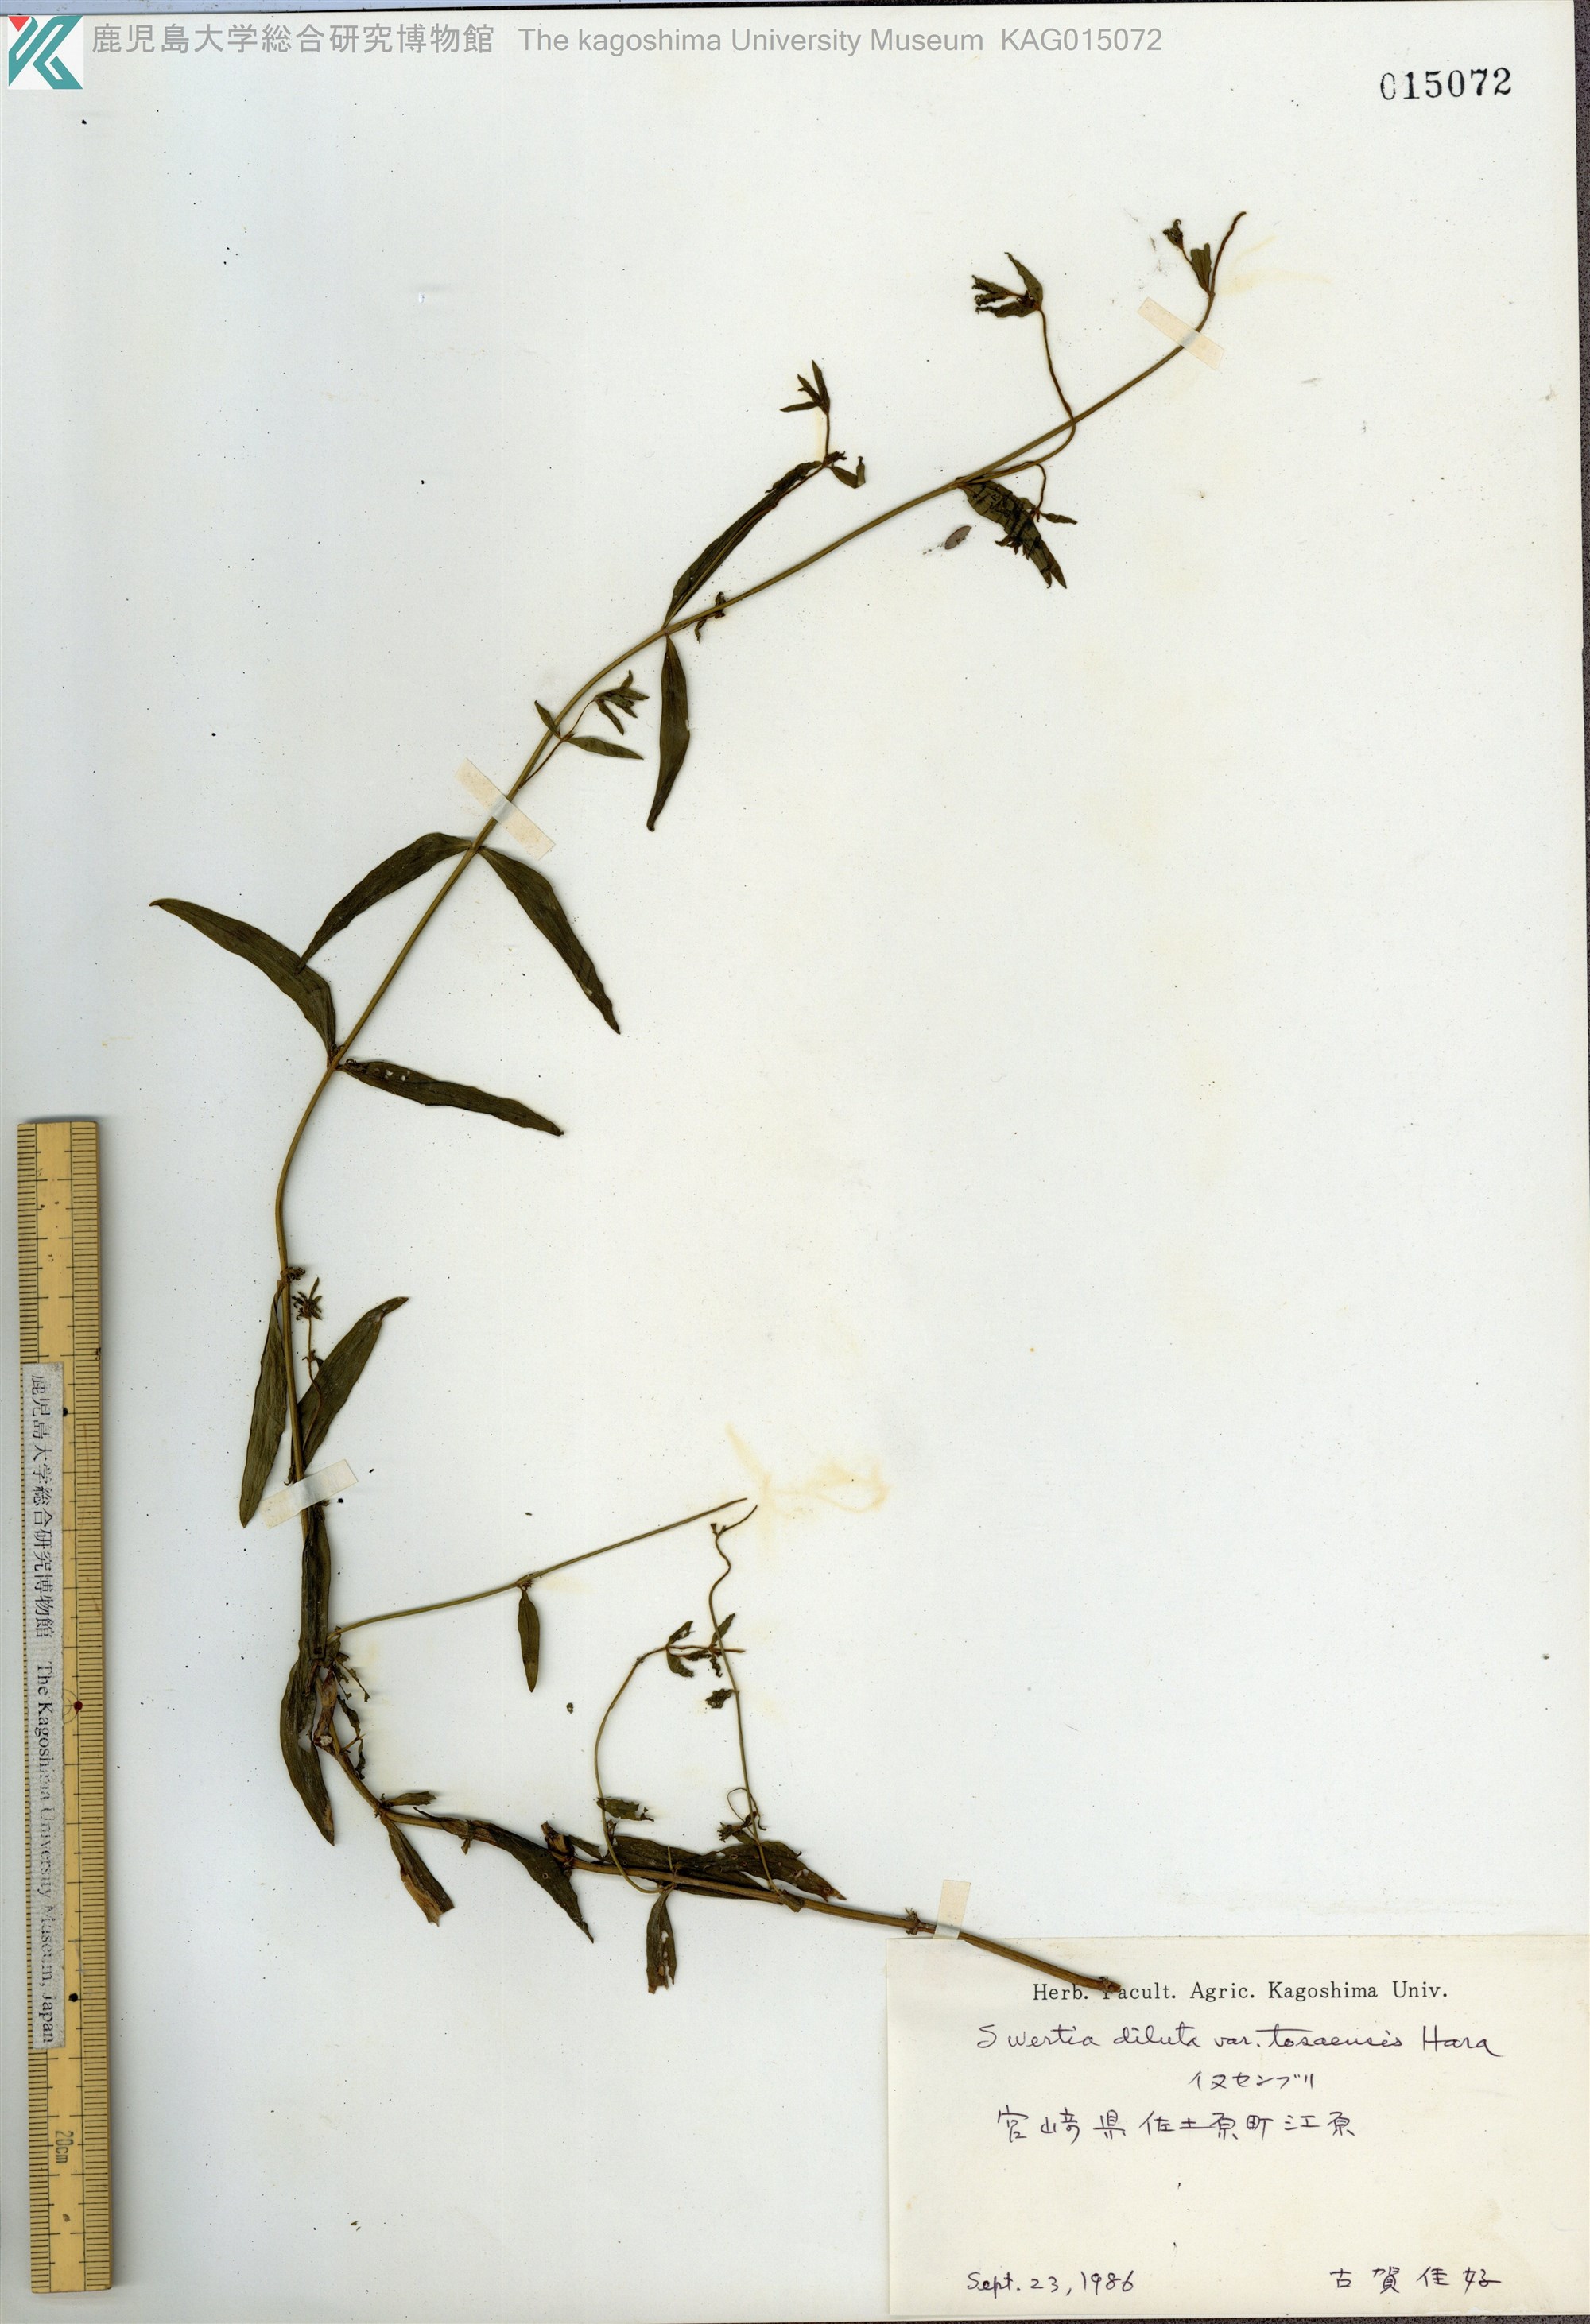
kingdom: Plantae
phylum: Tracheophyta
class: Magnoliopsida
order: Gentianales
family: Gentianaceae
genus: Swertia
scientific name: Swertia diluta
